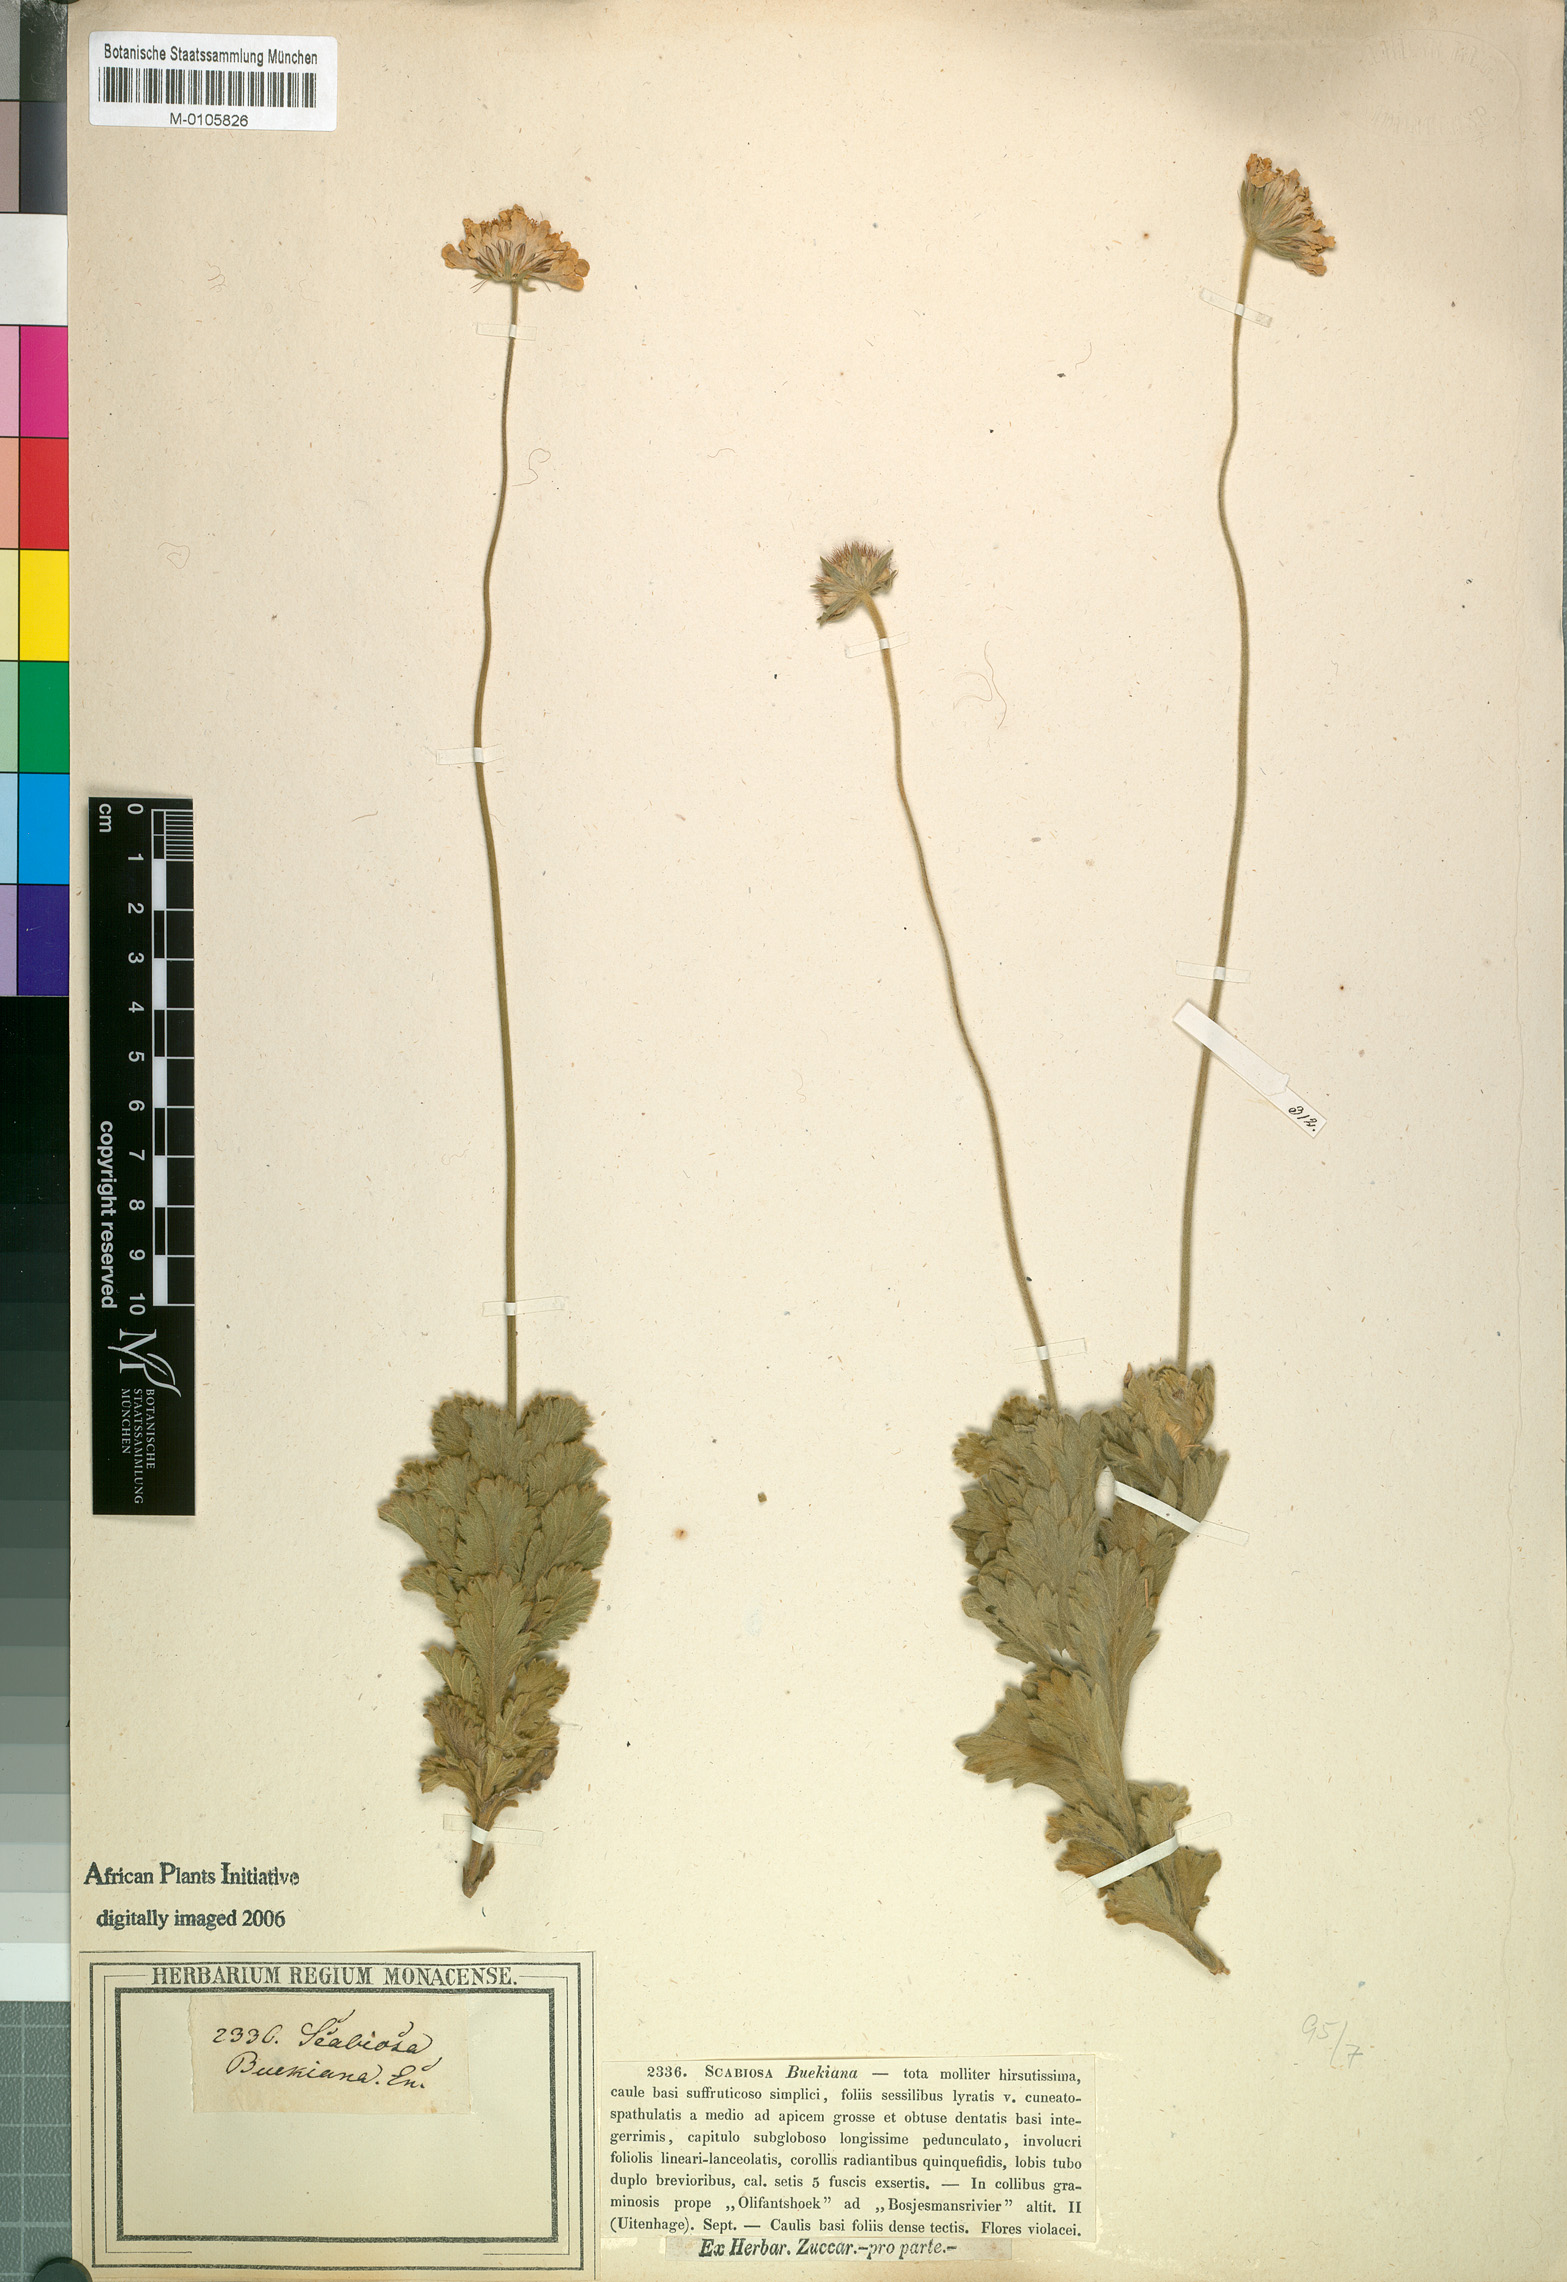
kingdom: Plantae
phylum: Tracheophyta
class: Magnoliopsida
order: Dipsacales
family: Caprifoliaceae
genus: Scabiosa
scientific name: Scabiosa buekiana
